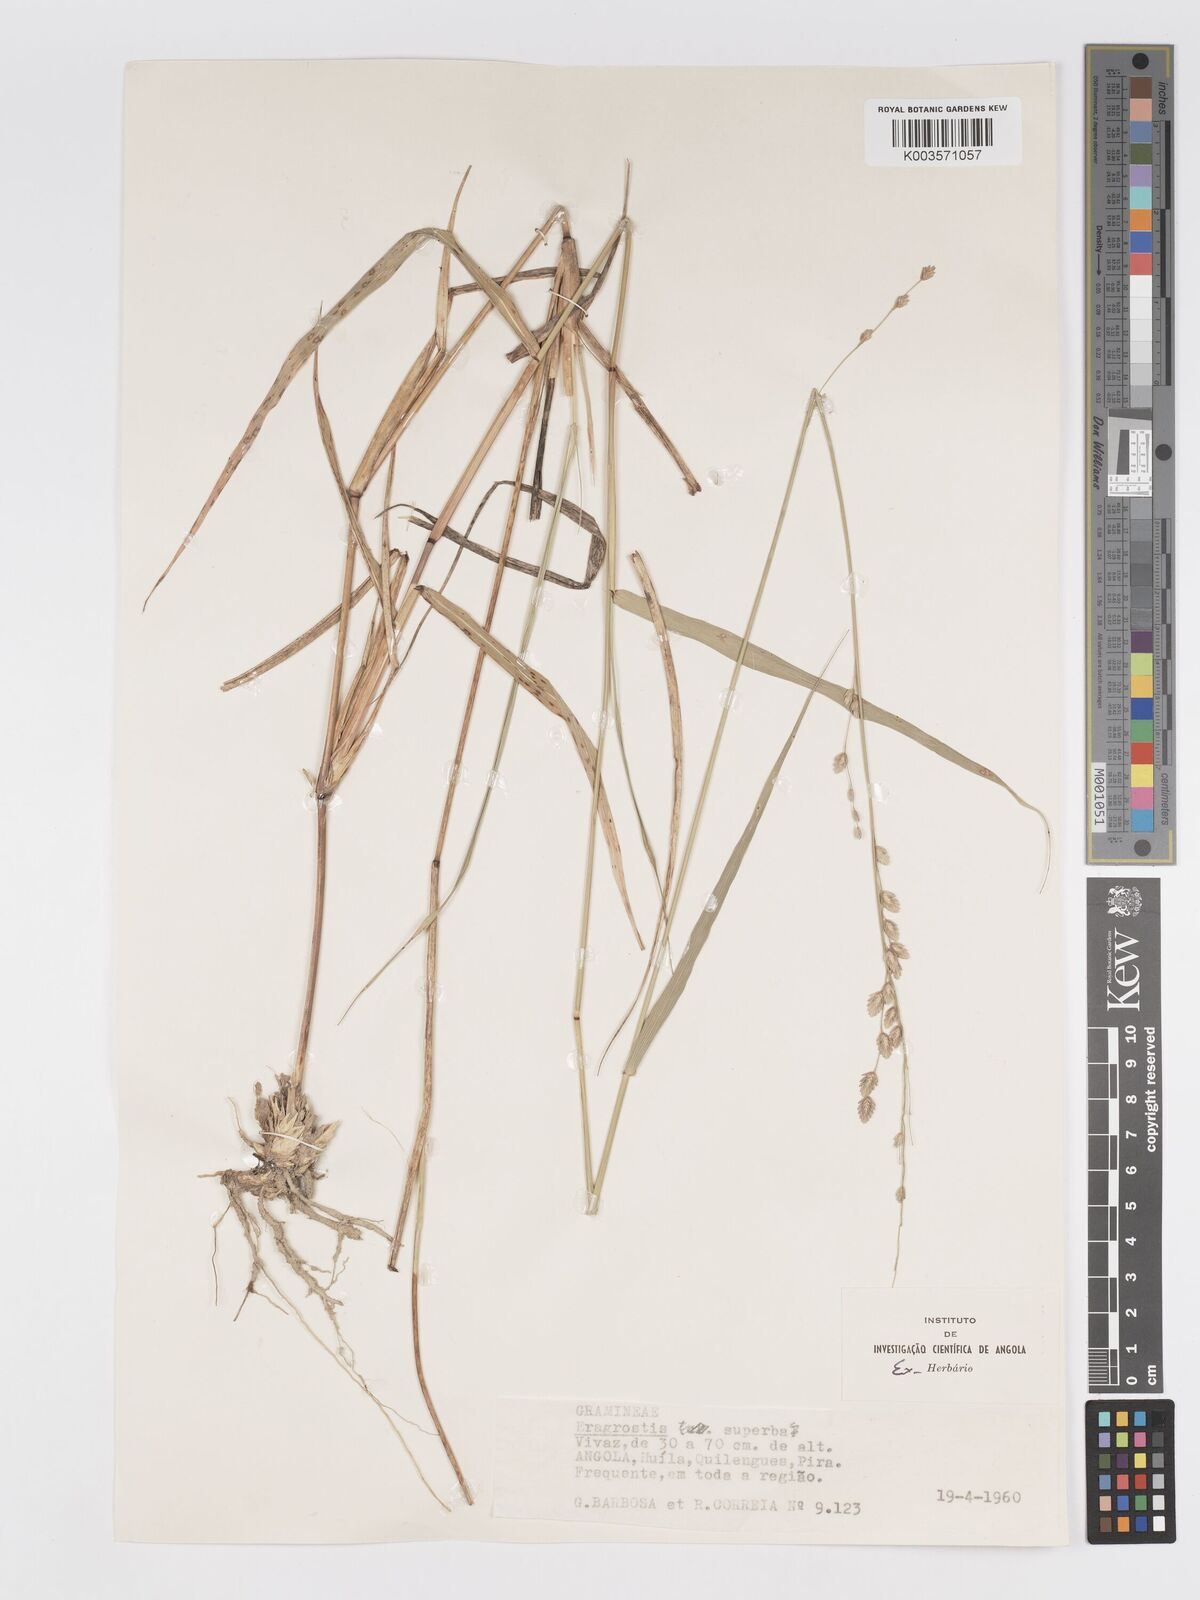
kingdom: Plantae
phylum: Tracheophyta
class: Liliopsida
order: Poales
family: Poaceae
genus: Eragrostis
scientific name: Eragrostis superba
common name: Wilman lovegrass
